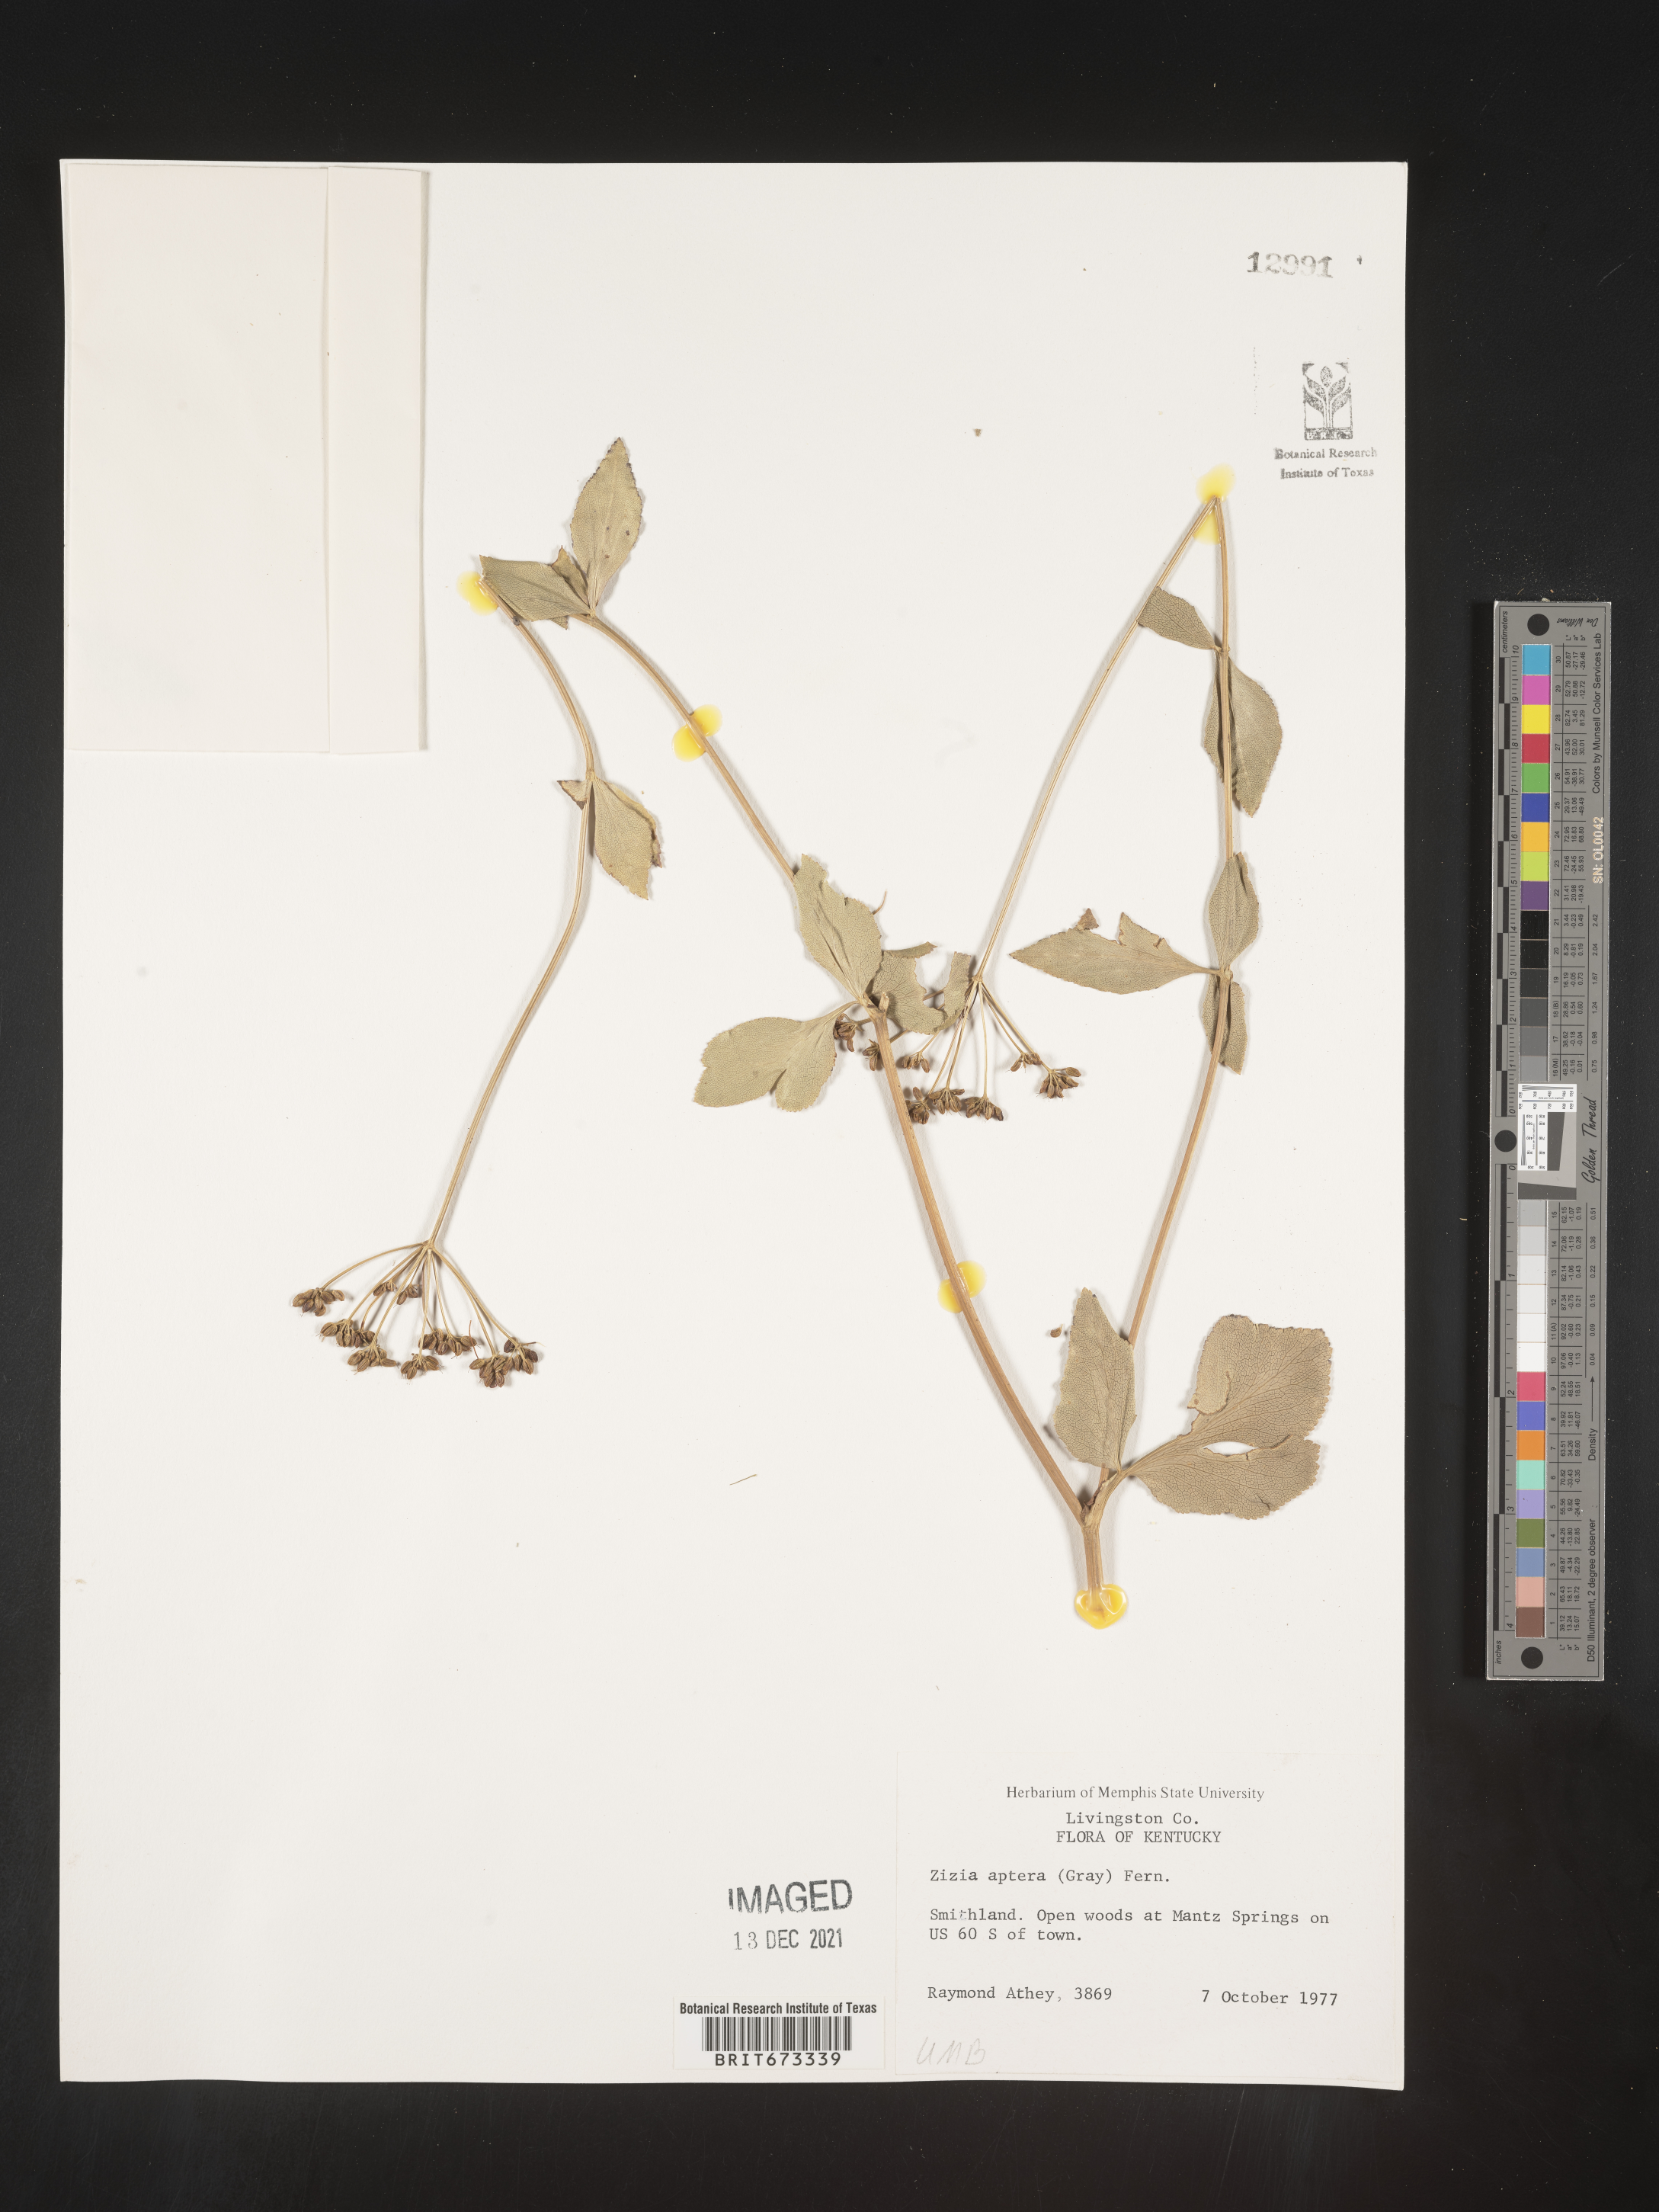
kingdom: Plantae
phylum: Tracheophyta
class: Magnoliopsida
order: Apiales
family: Apiaceae
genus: Zizia
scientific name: Zizia aptera
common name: Heart-leaved alexanders
